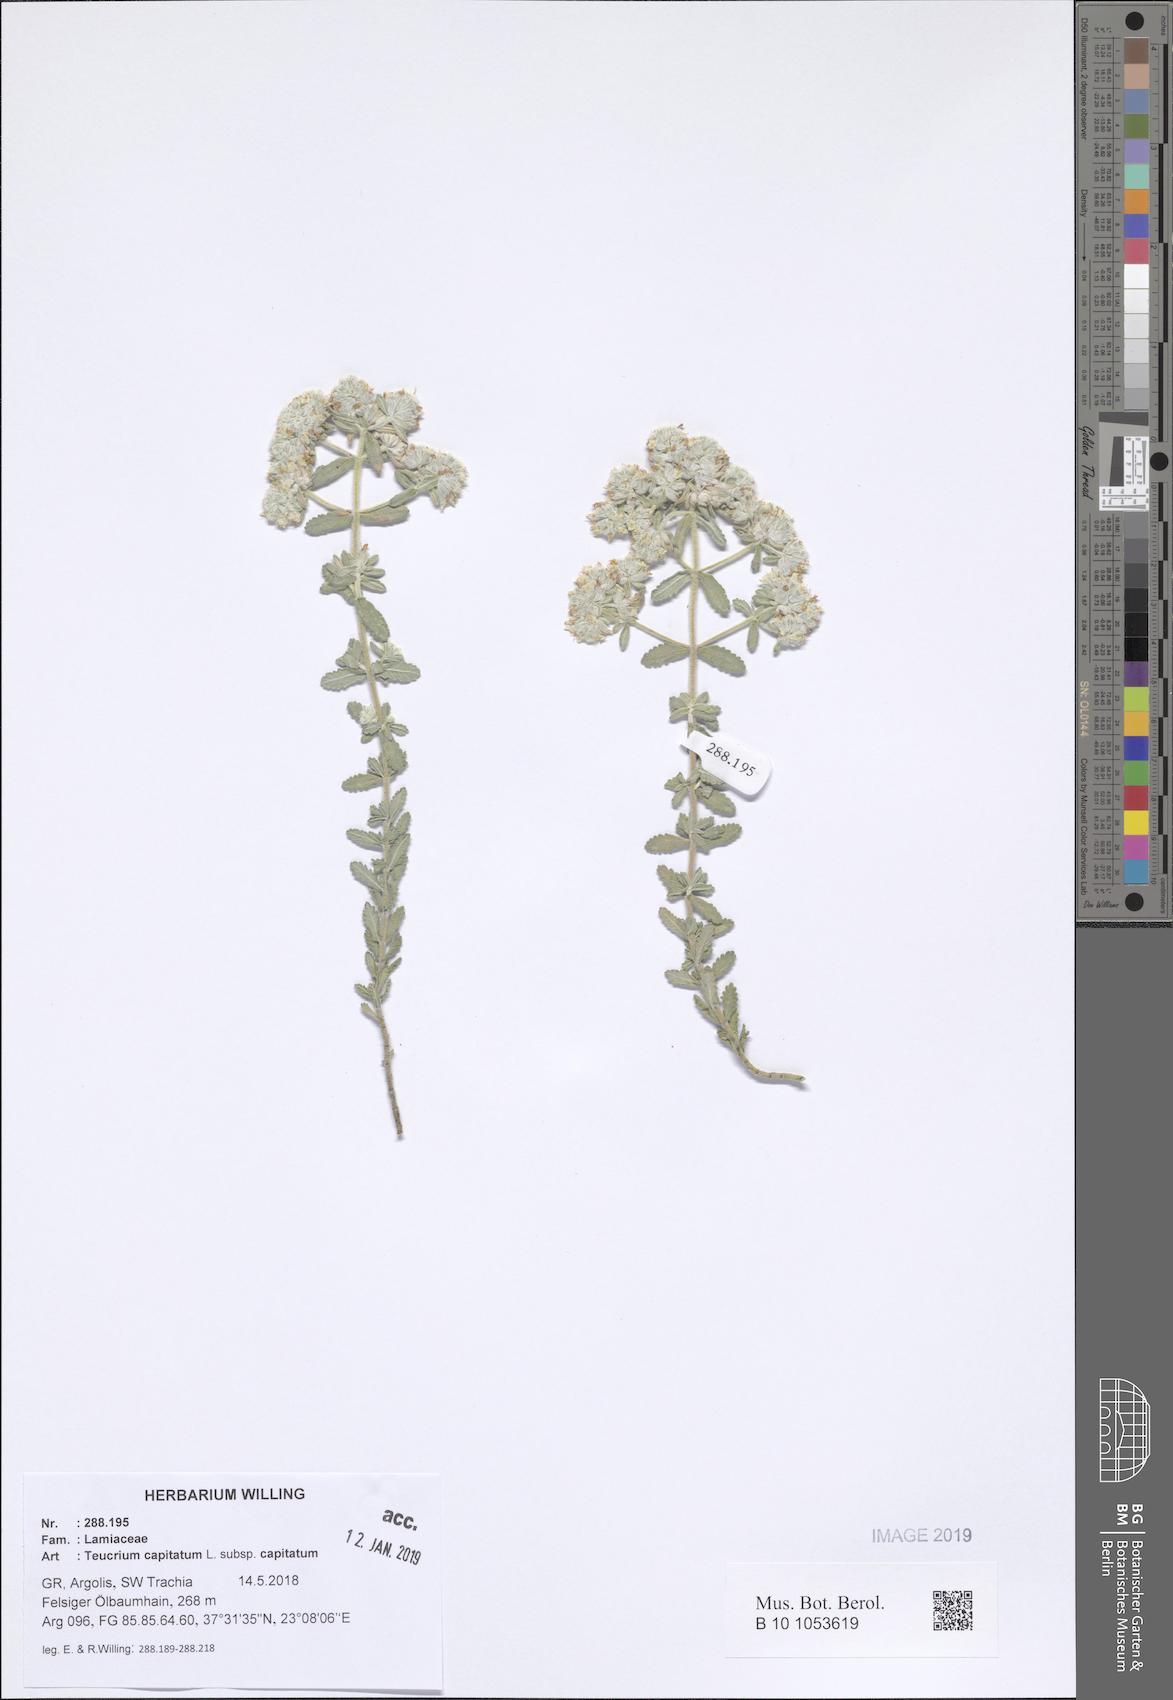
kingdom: Plantae
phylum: Tracheophyta
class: Magnoliopsida
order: Lamiales
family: Lamiaceae
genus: Teucrium
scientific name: Teucrium capitatum
